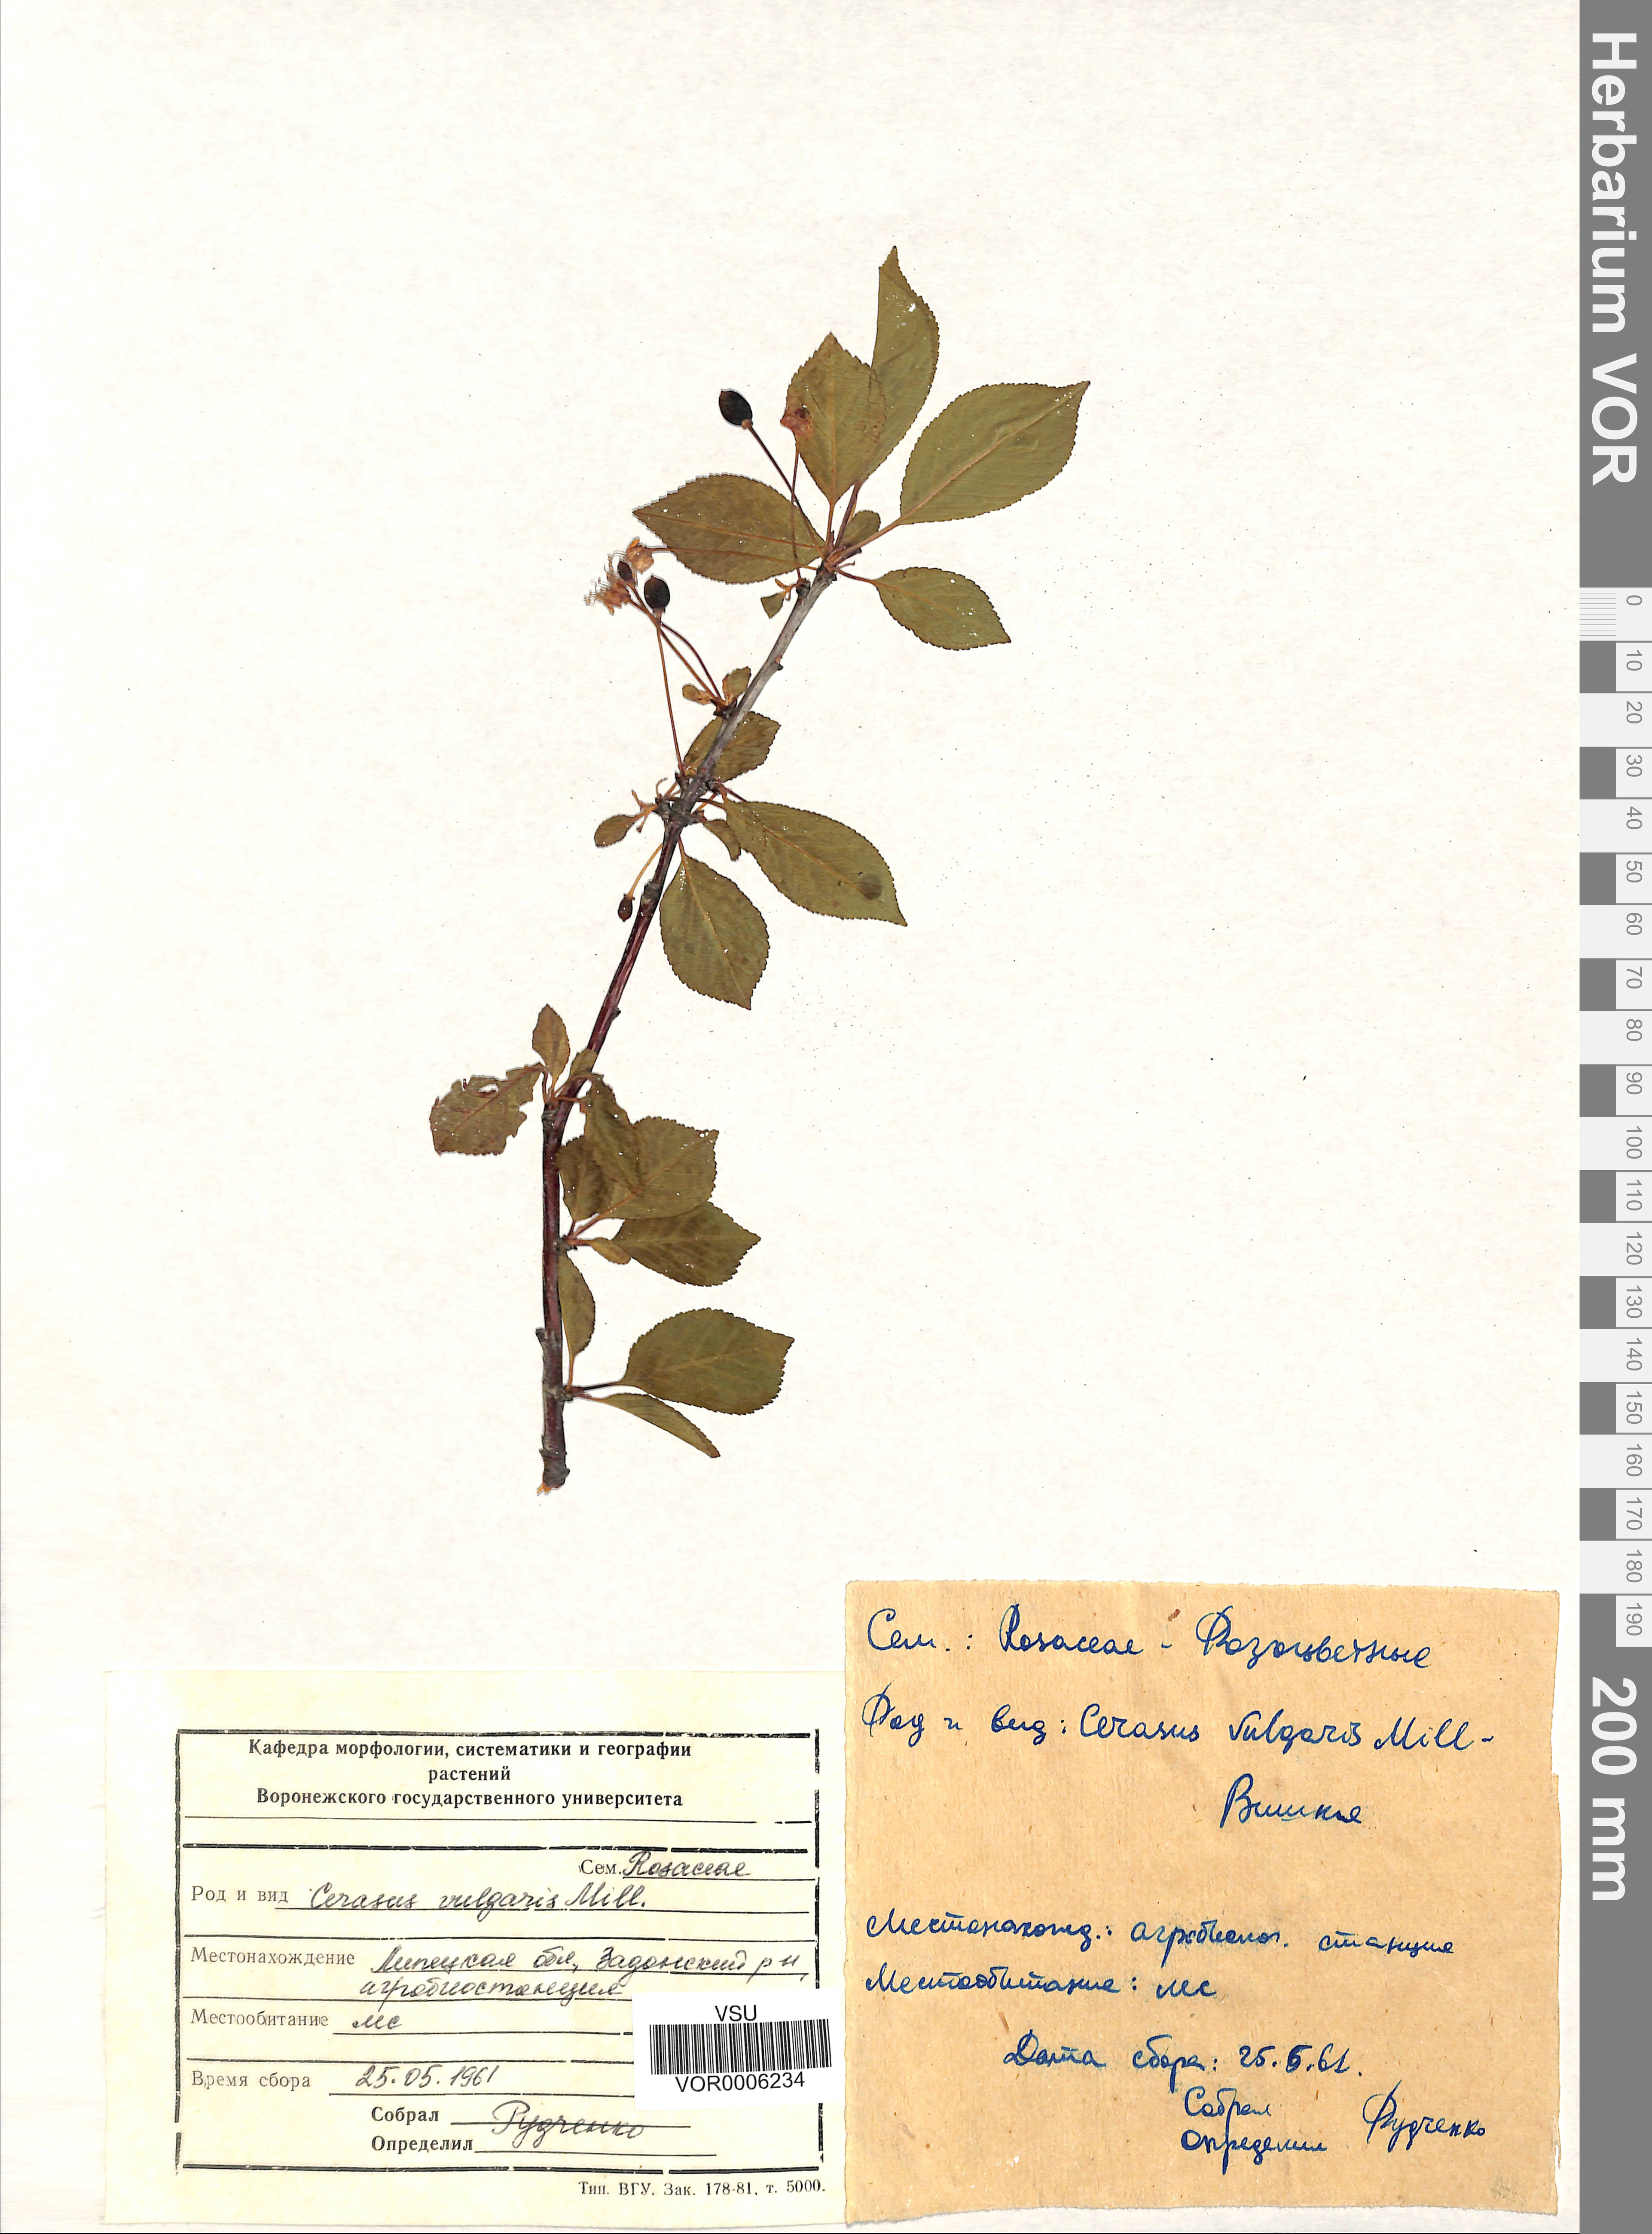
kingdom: Plantae
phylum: Tracheophyta
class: Magnoliopsida
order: Rosales
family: Rosaceae
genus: Prunus
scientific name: Prunus cerasus
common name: Morello cherry
